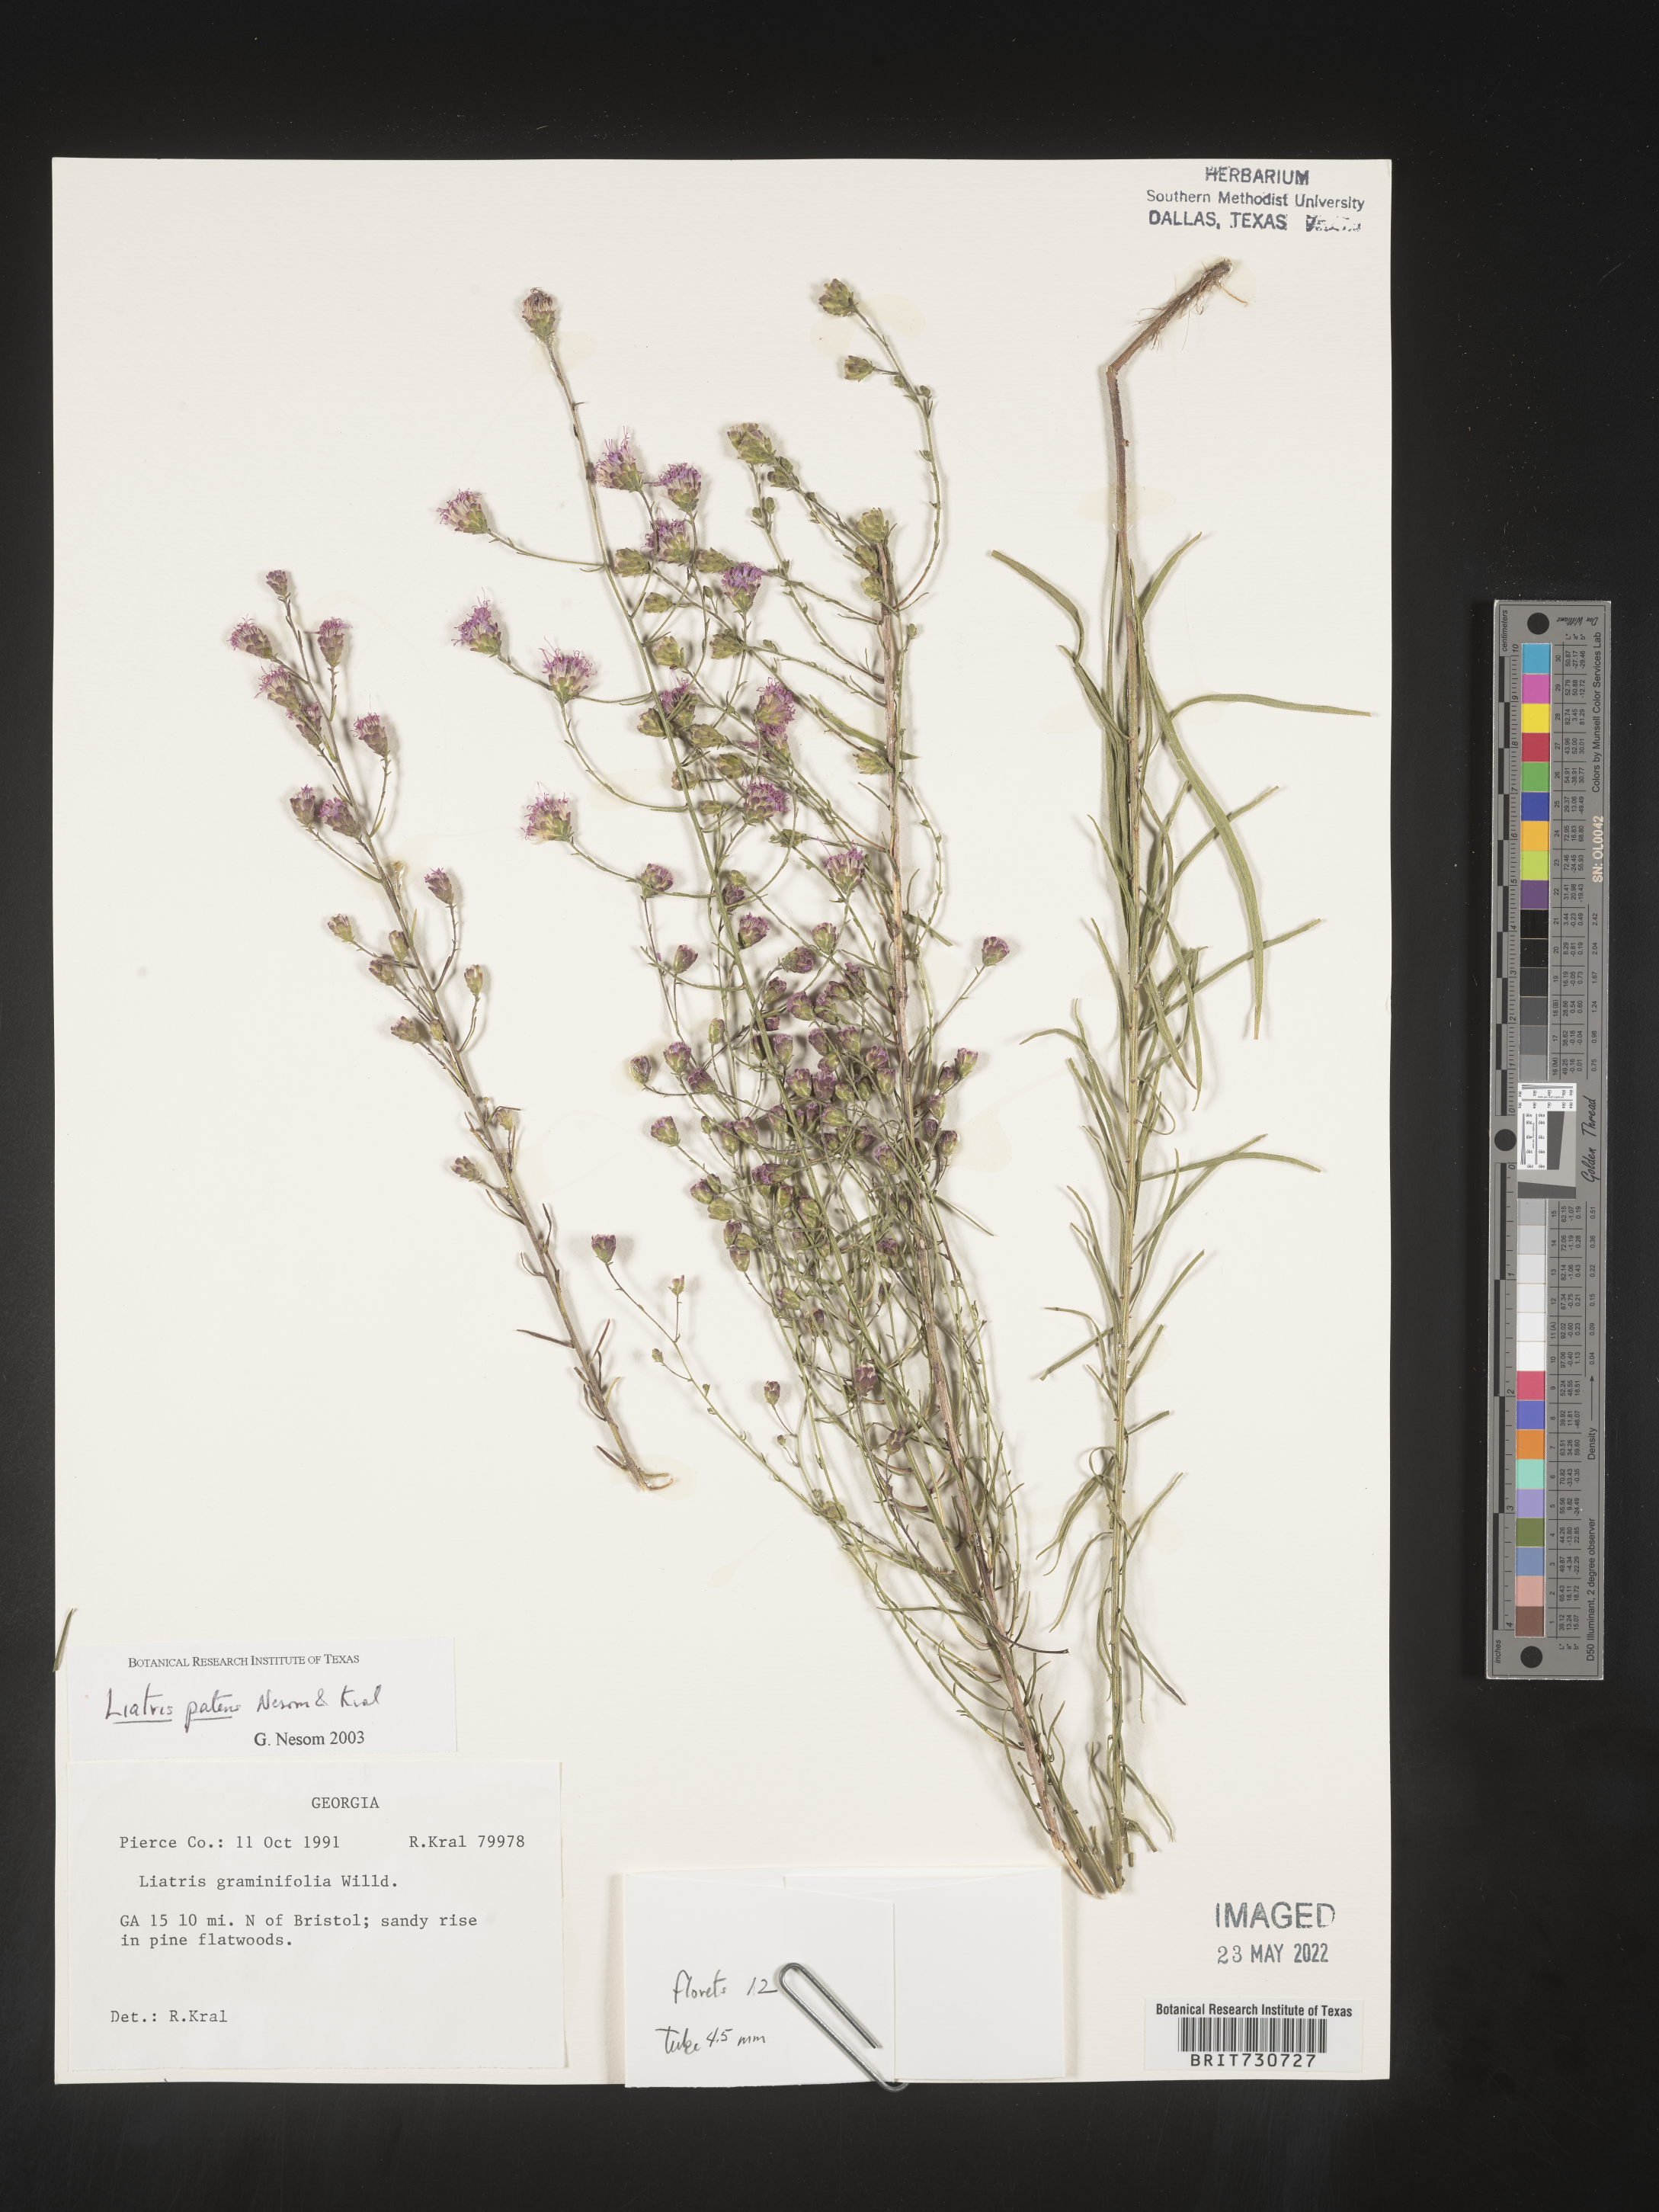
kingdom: Plantae
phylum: Tracheophyta
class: Magnoliopsida
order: Asterales
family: Asteraceae
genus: Liatris
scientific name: Liatris patens
